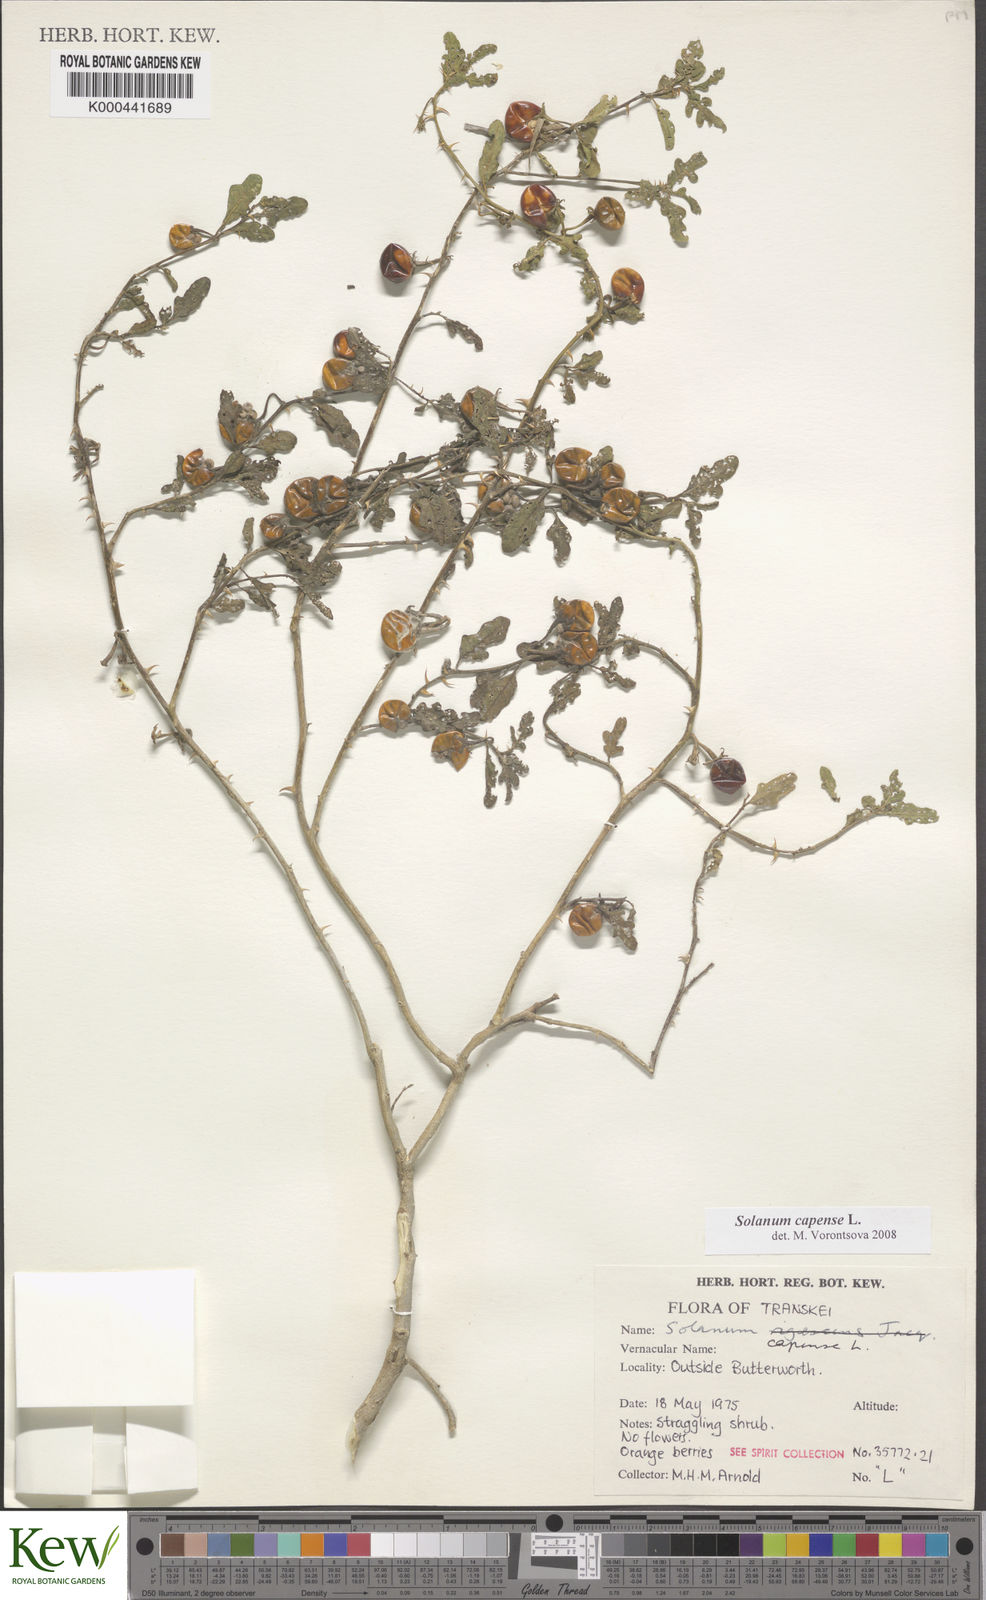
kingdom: Plantae
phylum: Tracheophyta
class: Magnoliopsida
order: Solanales
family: Solanaceae
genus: Solanum
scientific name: Solanum capense
